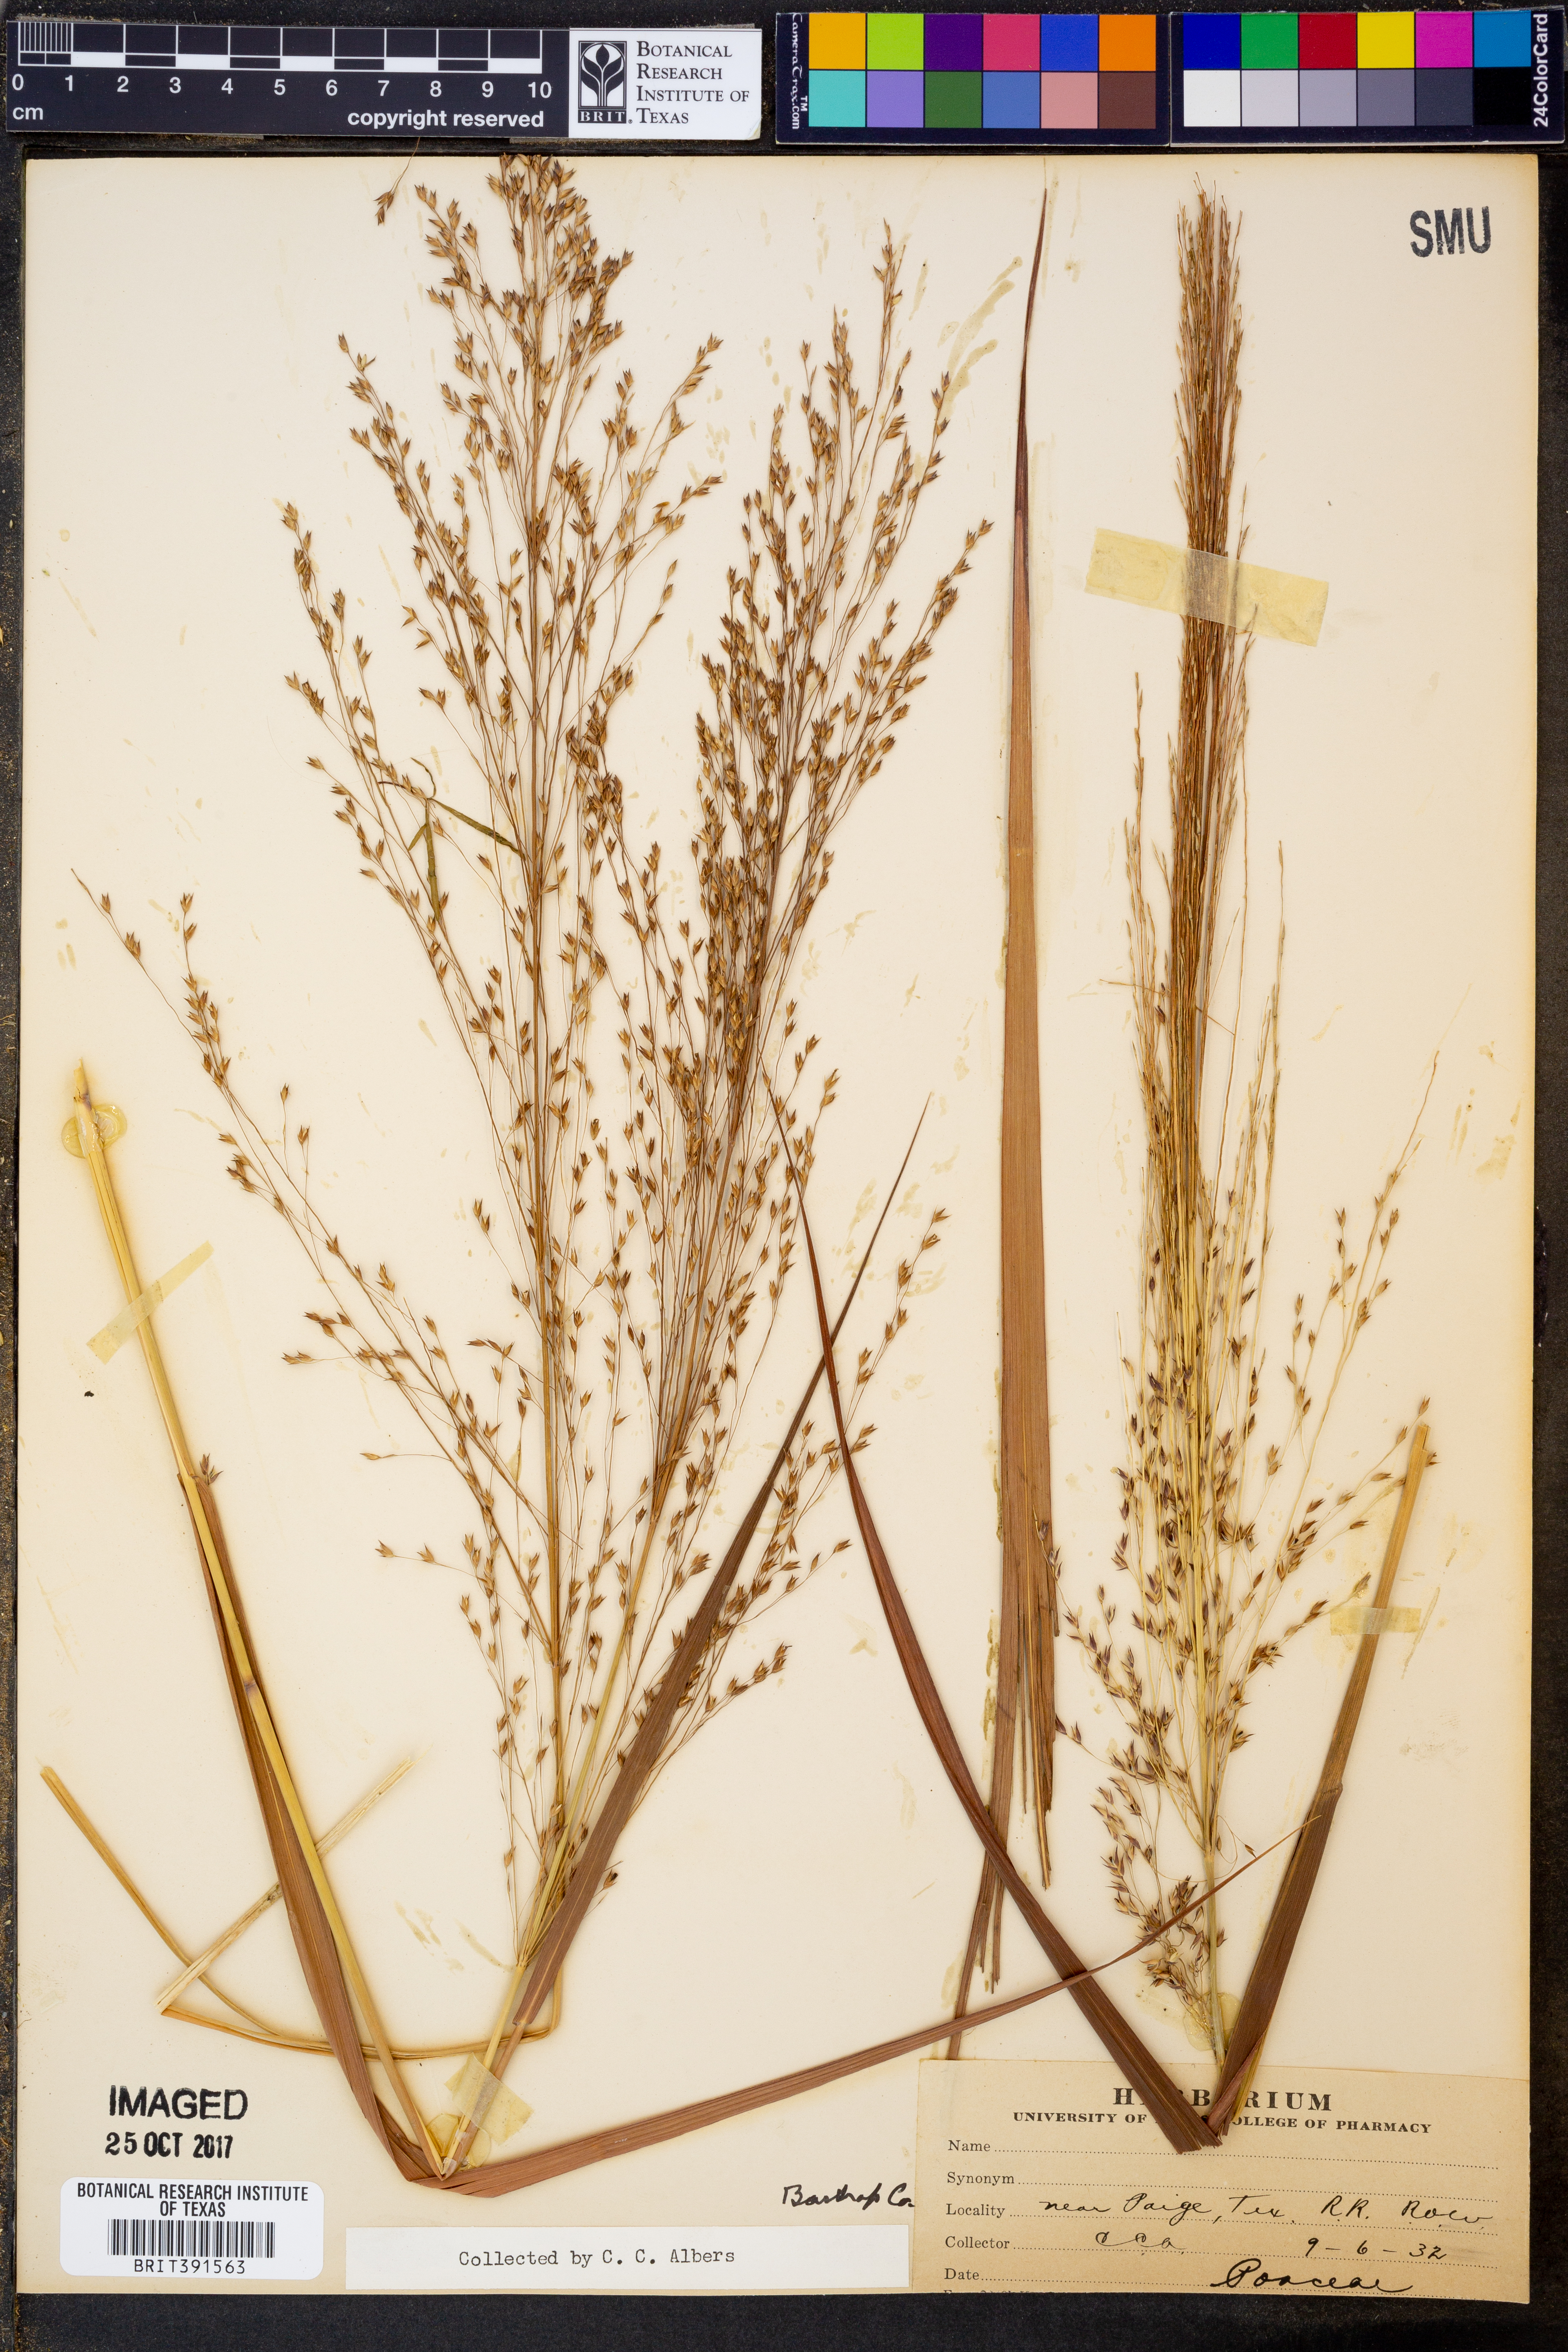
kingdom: Plantae
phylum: Tracheophyta
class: Liliopsida
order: Poales
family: Poaceae
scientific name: Poaceae
